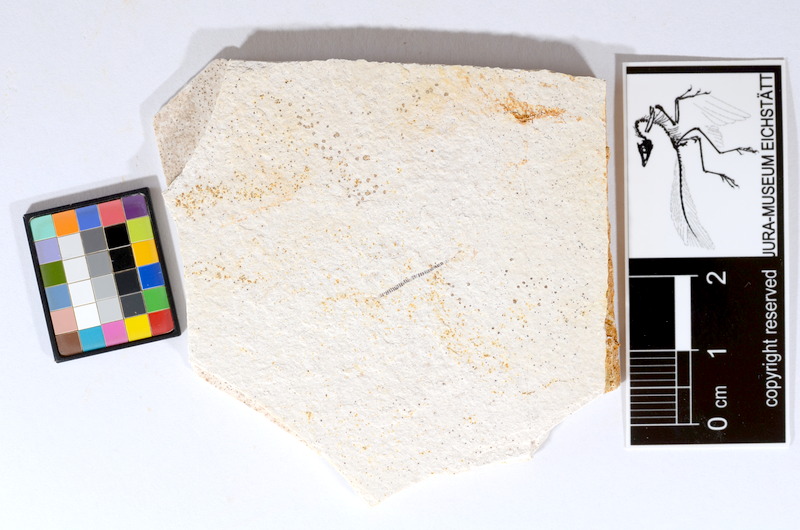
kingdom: Animalia
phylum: Chordata
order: Salmoniformes
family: Orthogonikleithridae
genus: Orthogonikleithrus
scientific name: Orthogonikleithrus hoelli
